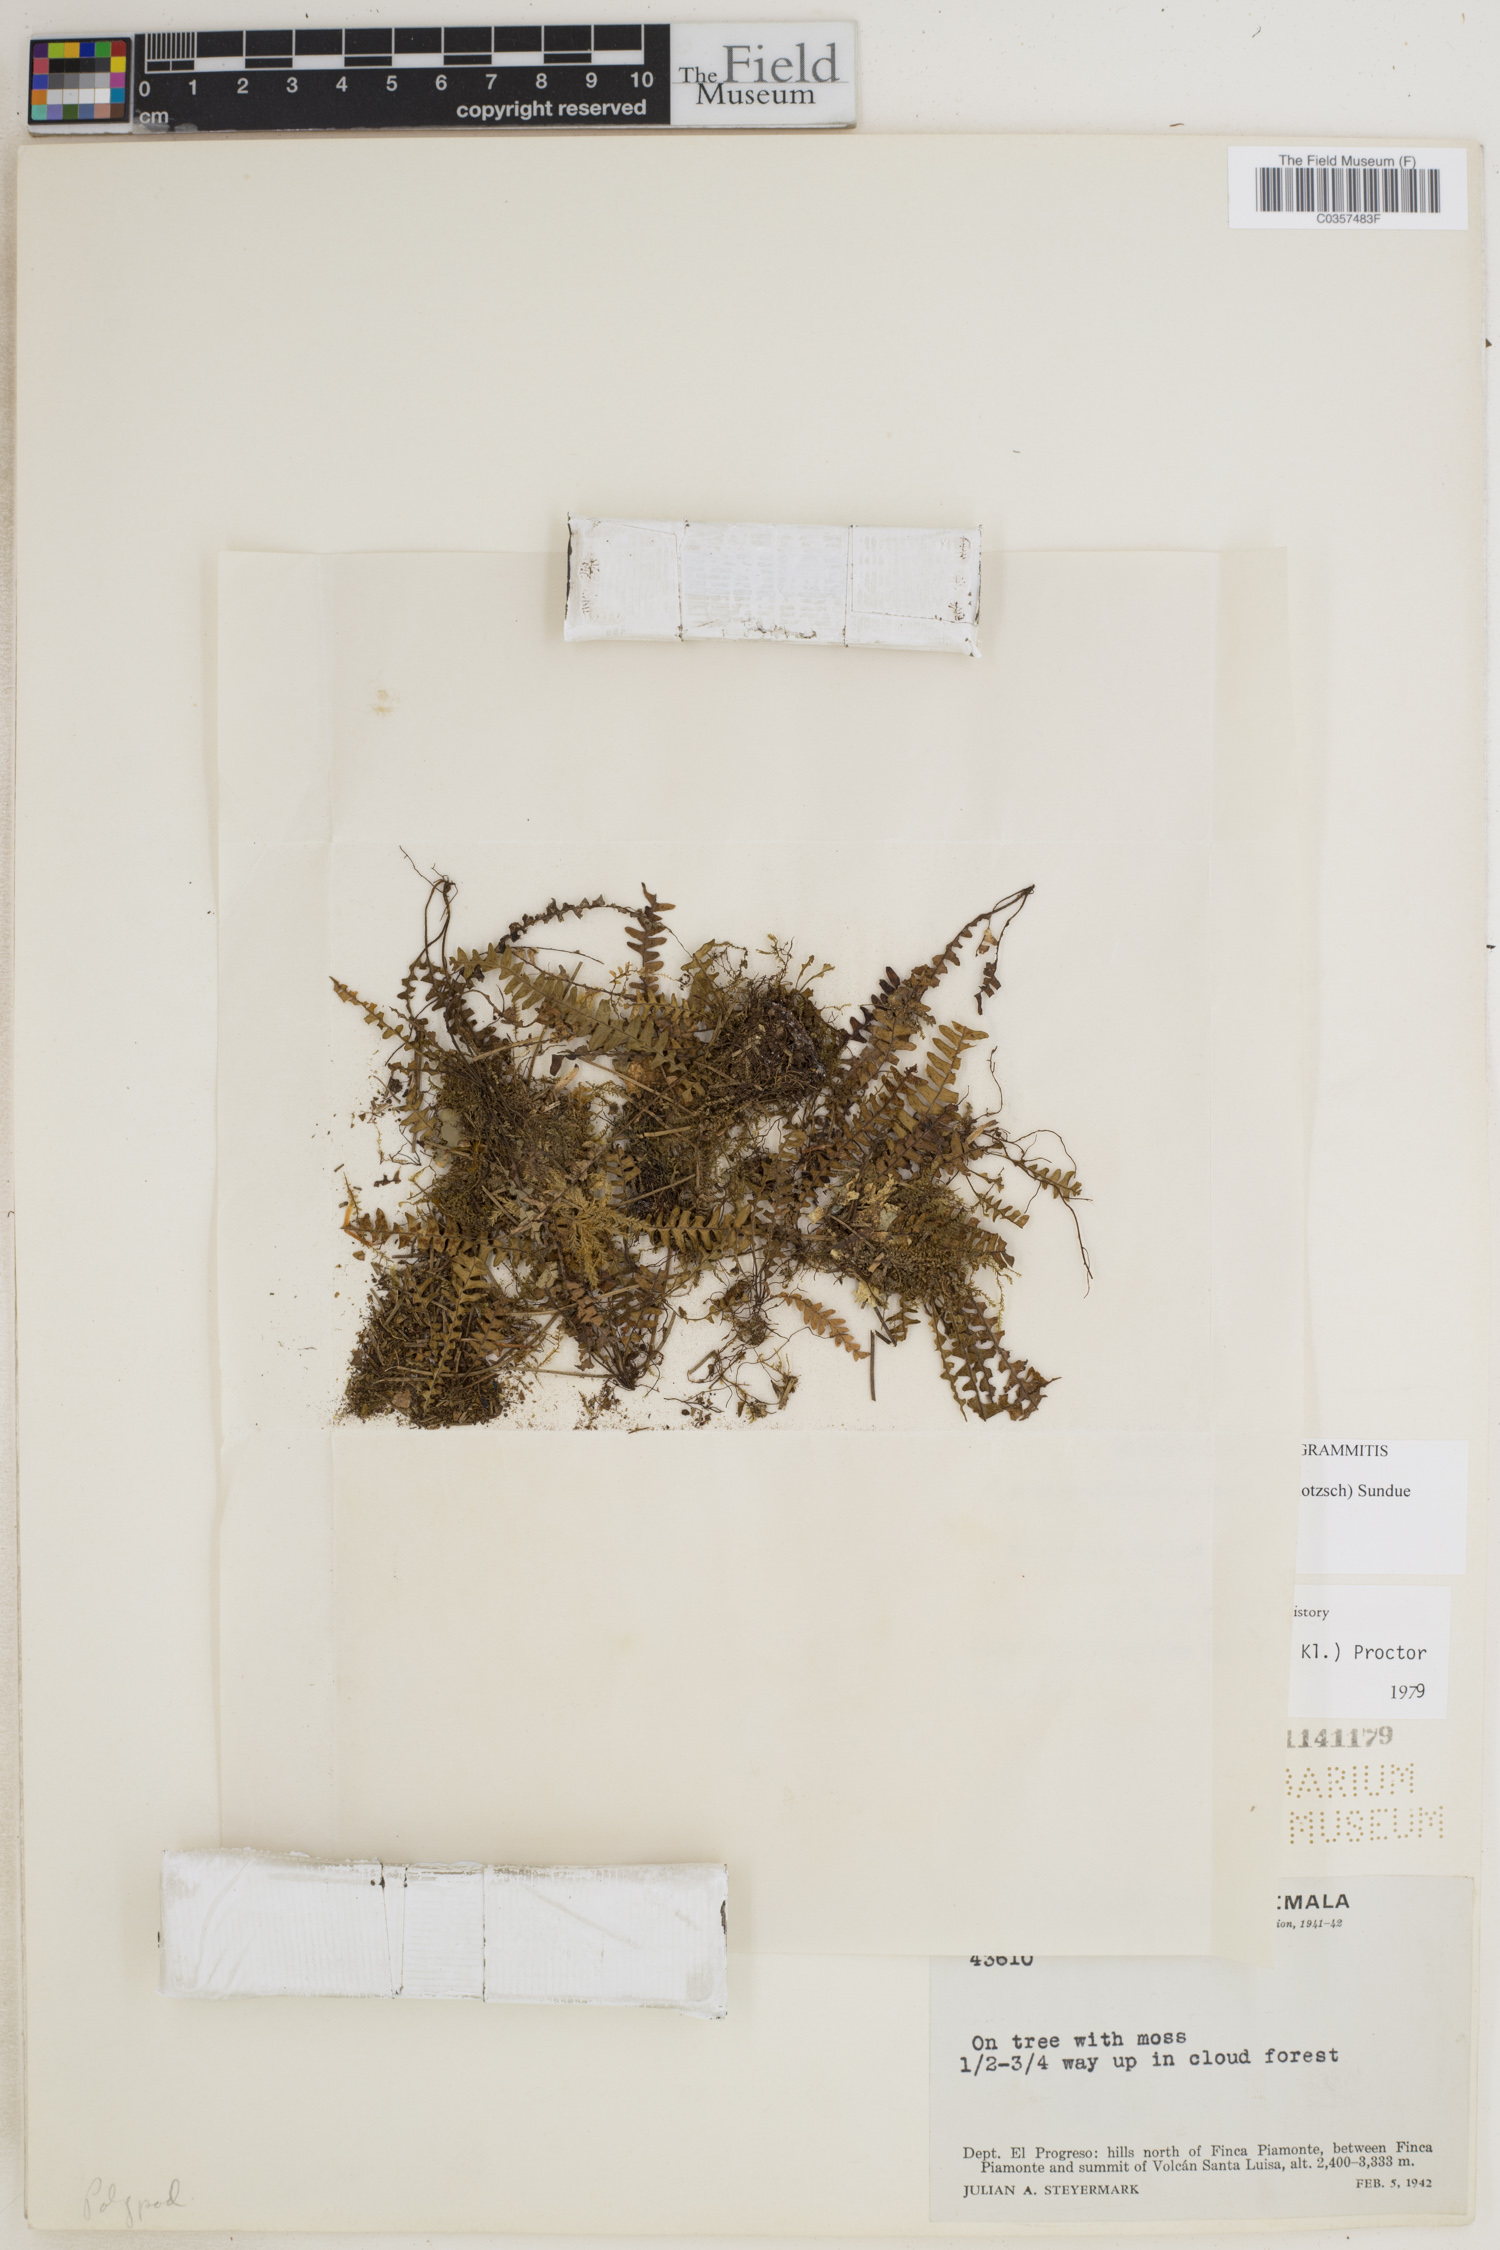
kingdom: Plantae
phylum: Tracheophyta
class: Polypodiopsida
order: Polypodiales
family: Polypodiaceae
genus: Ascogrammitis
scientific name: Ascogrammitis anfractuosa
